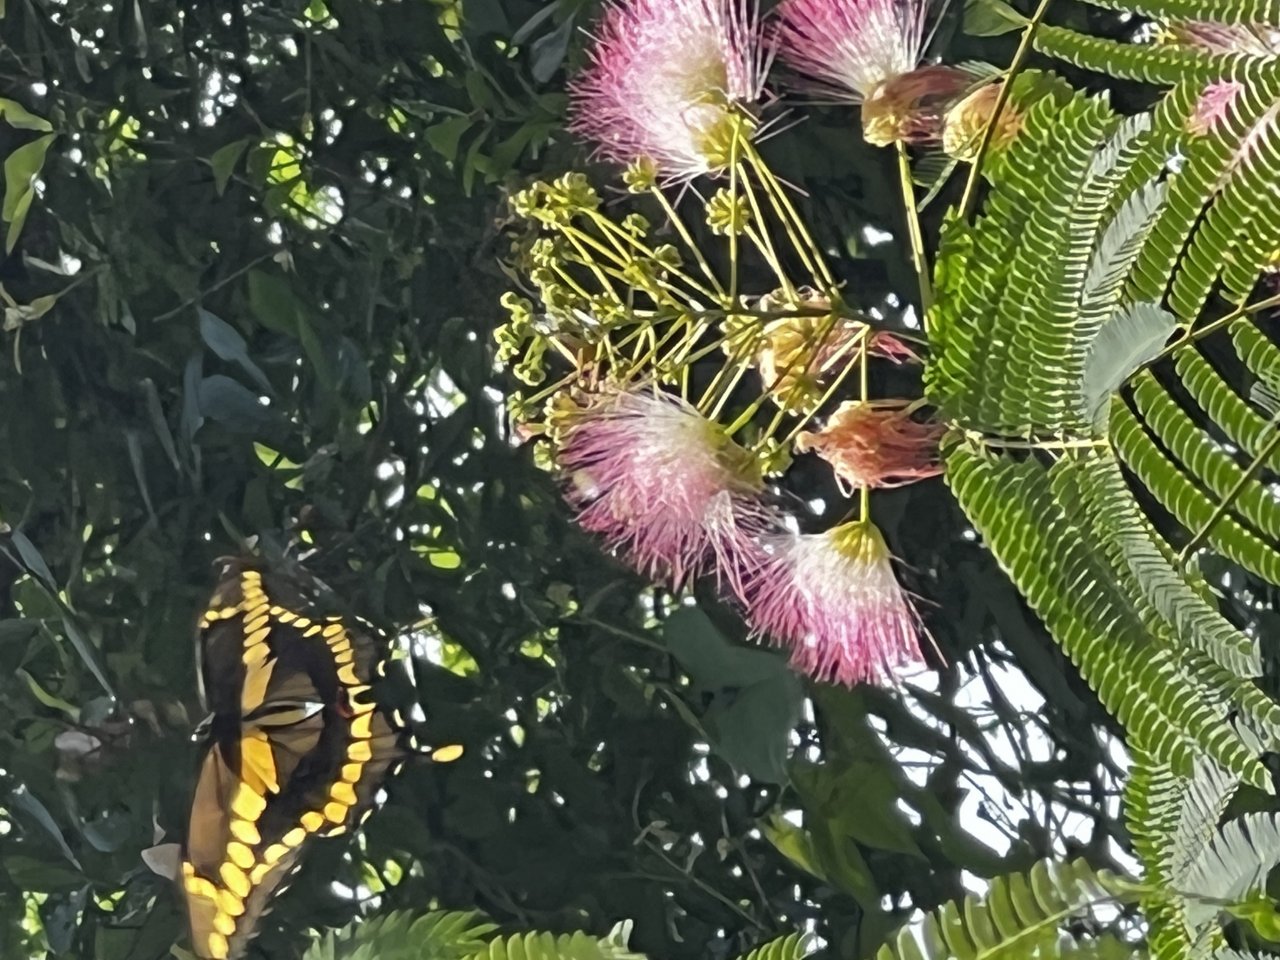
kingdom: Animalia
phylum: Arthropoda
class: Insecta
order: Lepidoptera
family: Papilionidae
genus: Papilio
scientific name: Papilio cresphontes
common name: Eastern Giant Swallowtail
